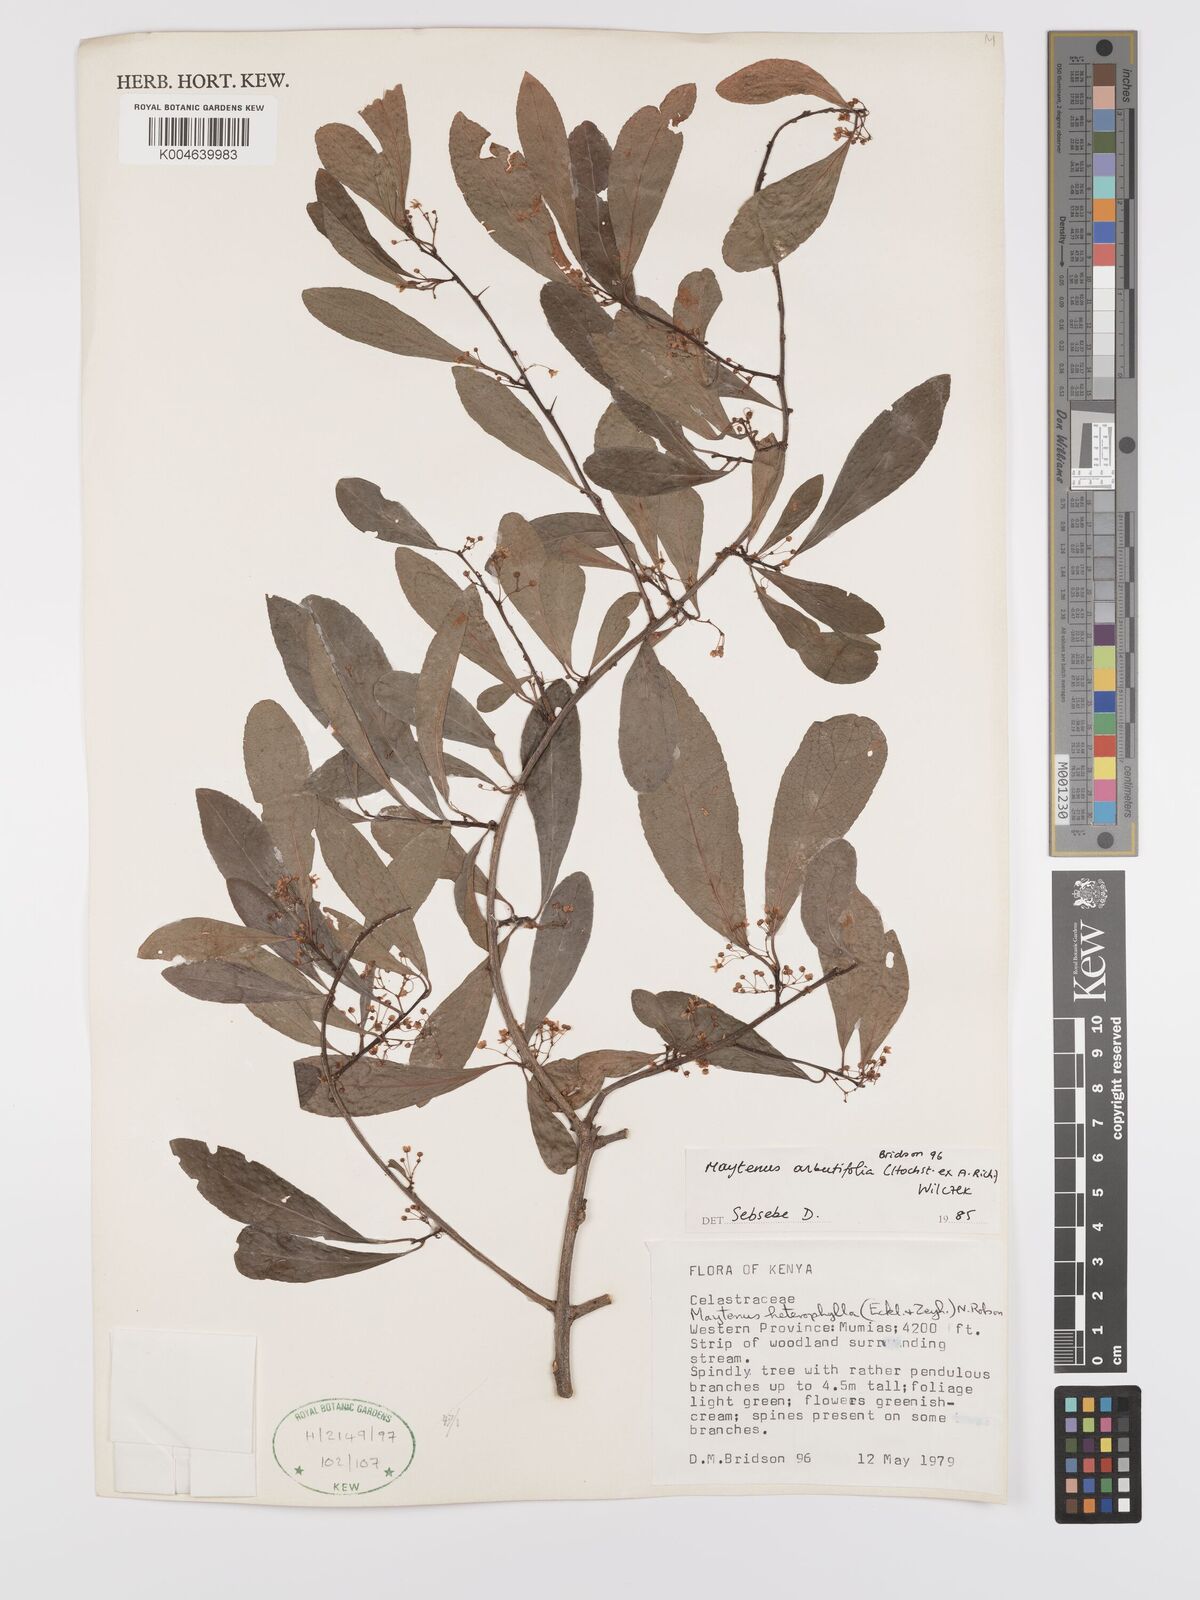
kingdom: Plantae
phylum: Tracheophyta
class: Magnoliopsida
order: Celastrales
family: Celastraceae
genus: Gymnosporia
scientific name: Gymnosporia arbutifolia
